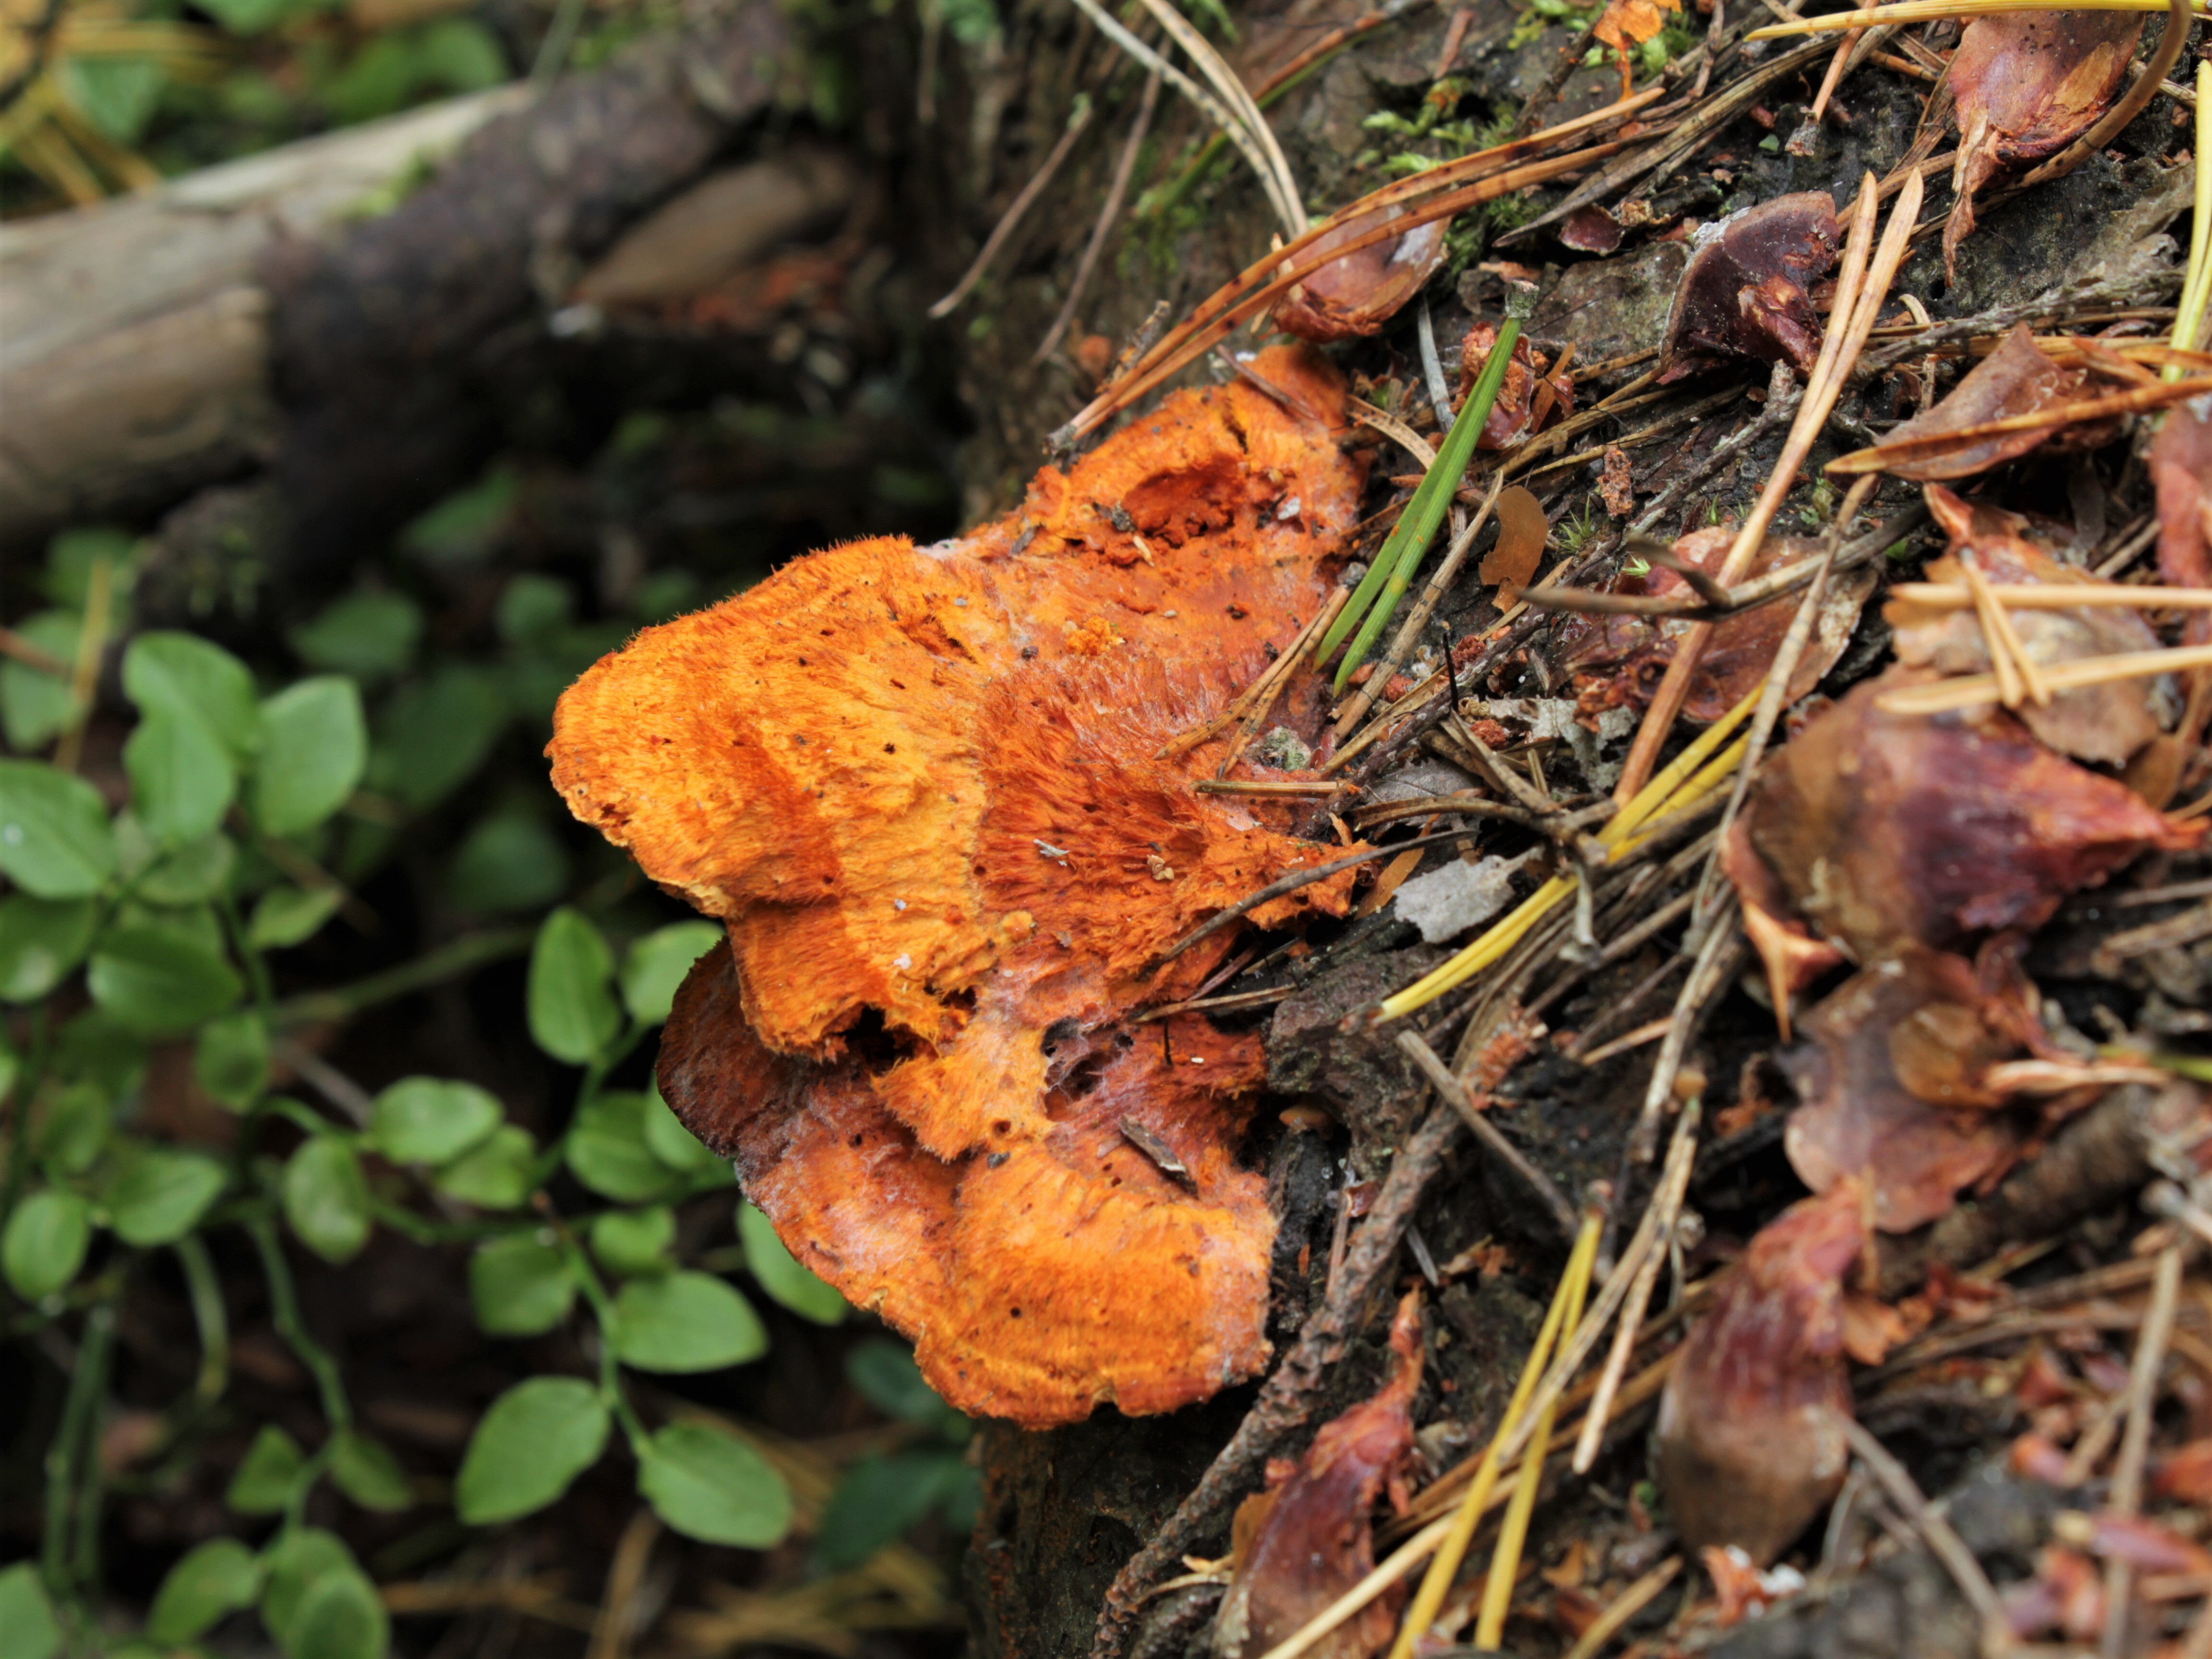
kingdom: Fungi
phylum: Basidiomycota
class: Agaricomycetes
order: Polyporales
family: Pycnoporellaceae
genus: Pycnoporellus
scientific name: Pycnoporellus fulgens
